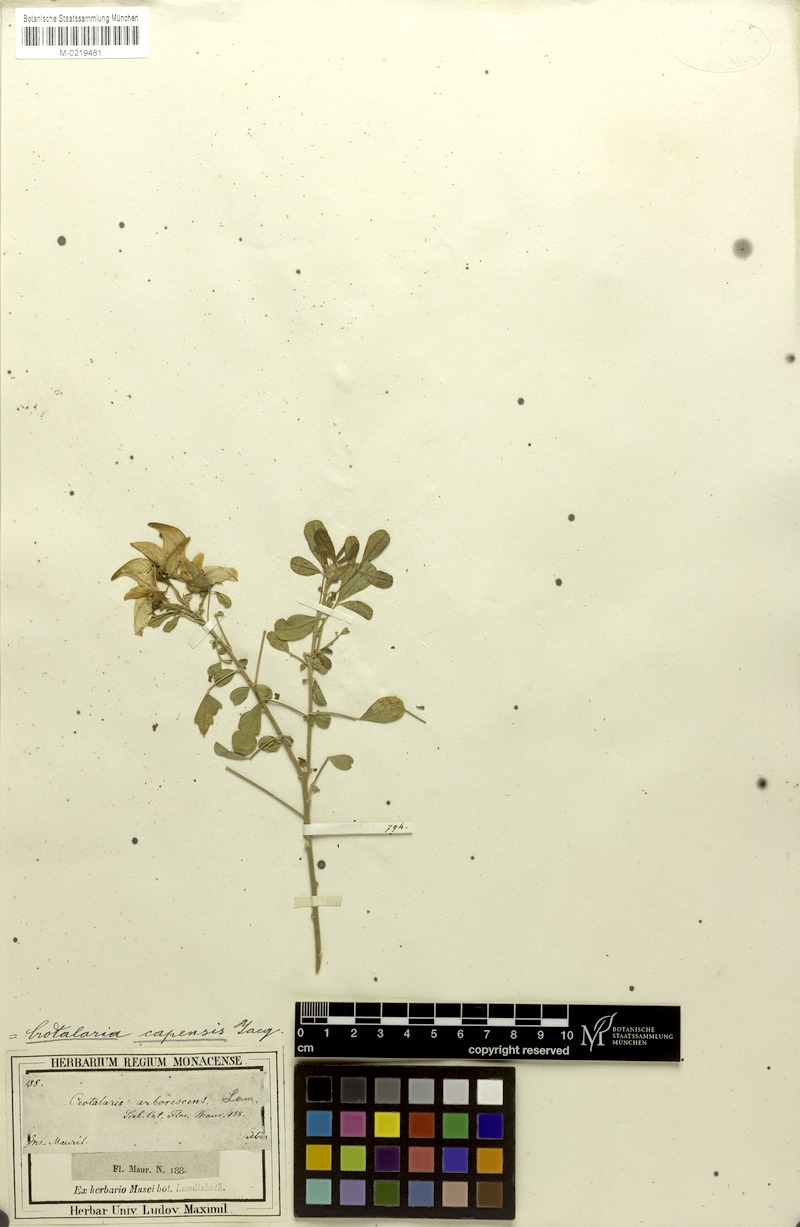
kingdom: Plantae
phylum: Tracheophyta
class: Magnoliopsida
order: Fabales
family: Fabaceae
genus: Crotalaria
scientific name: Crotalaria capensis
